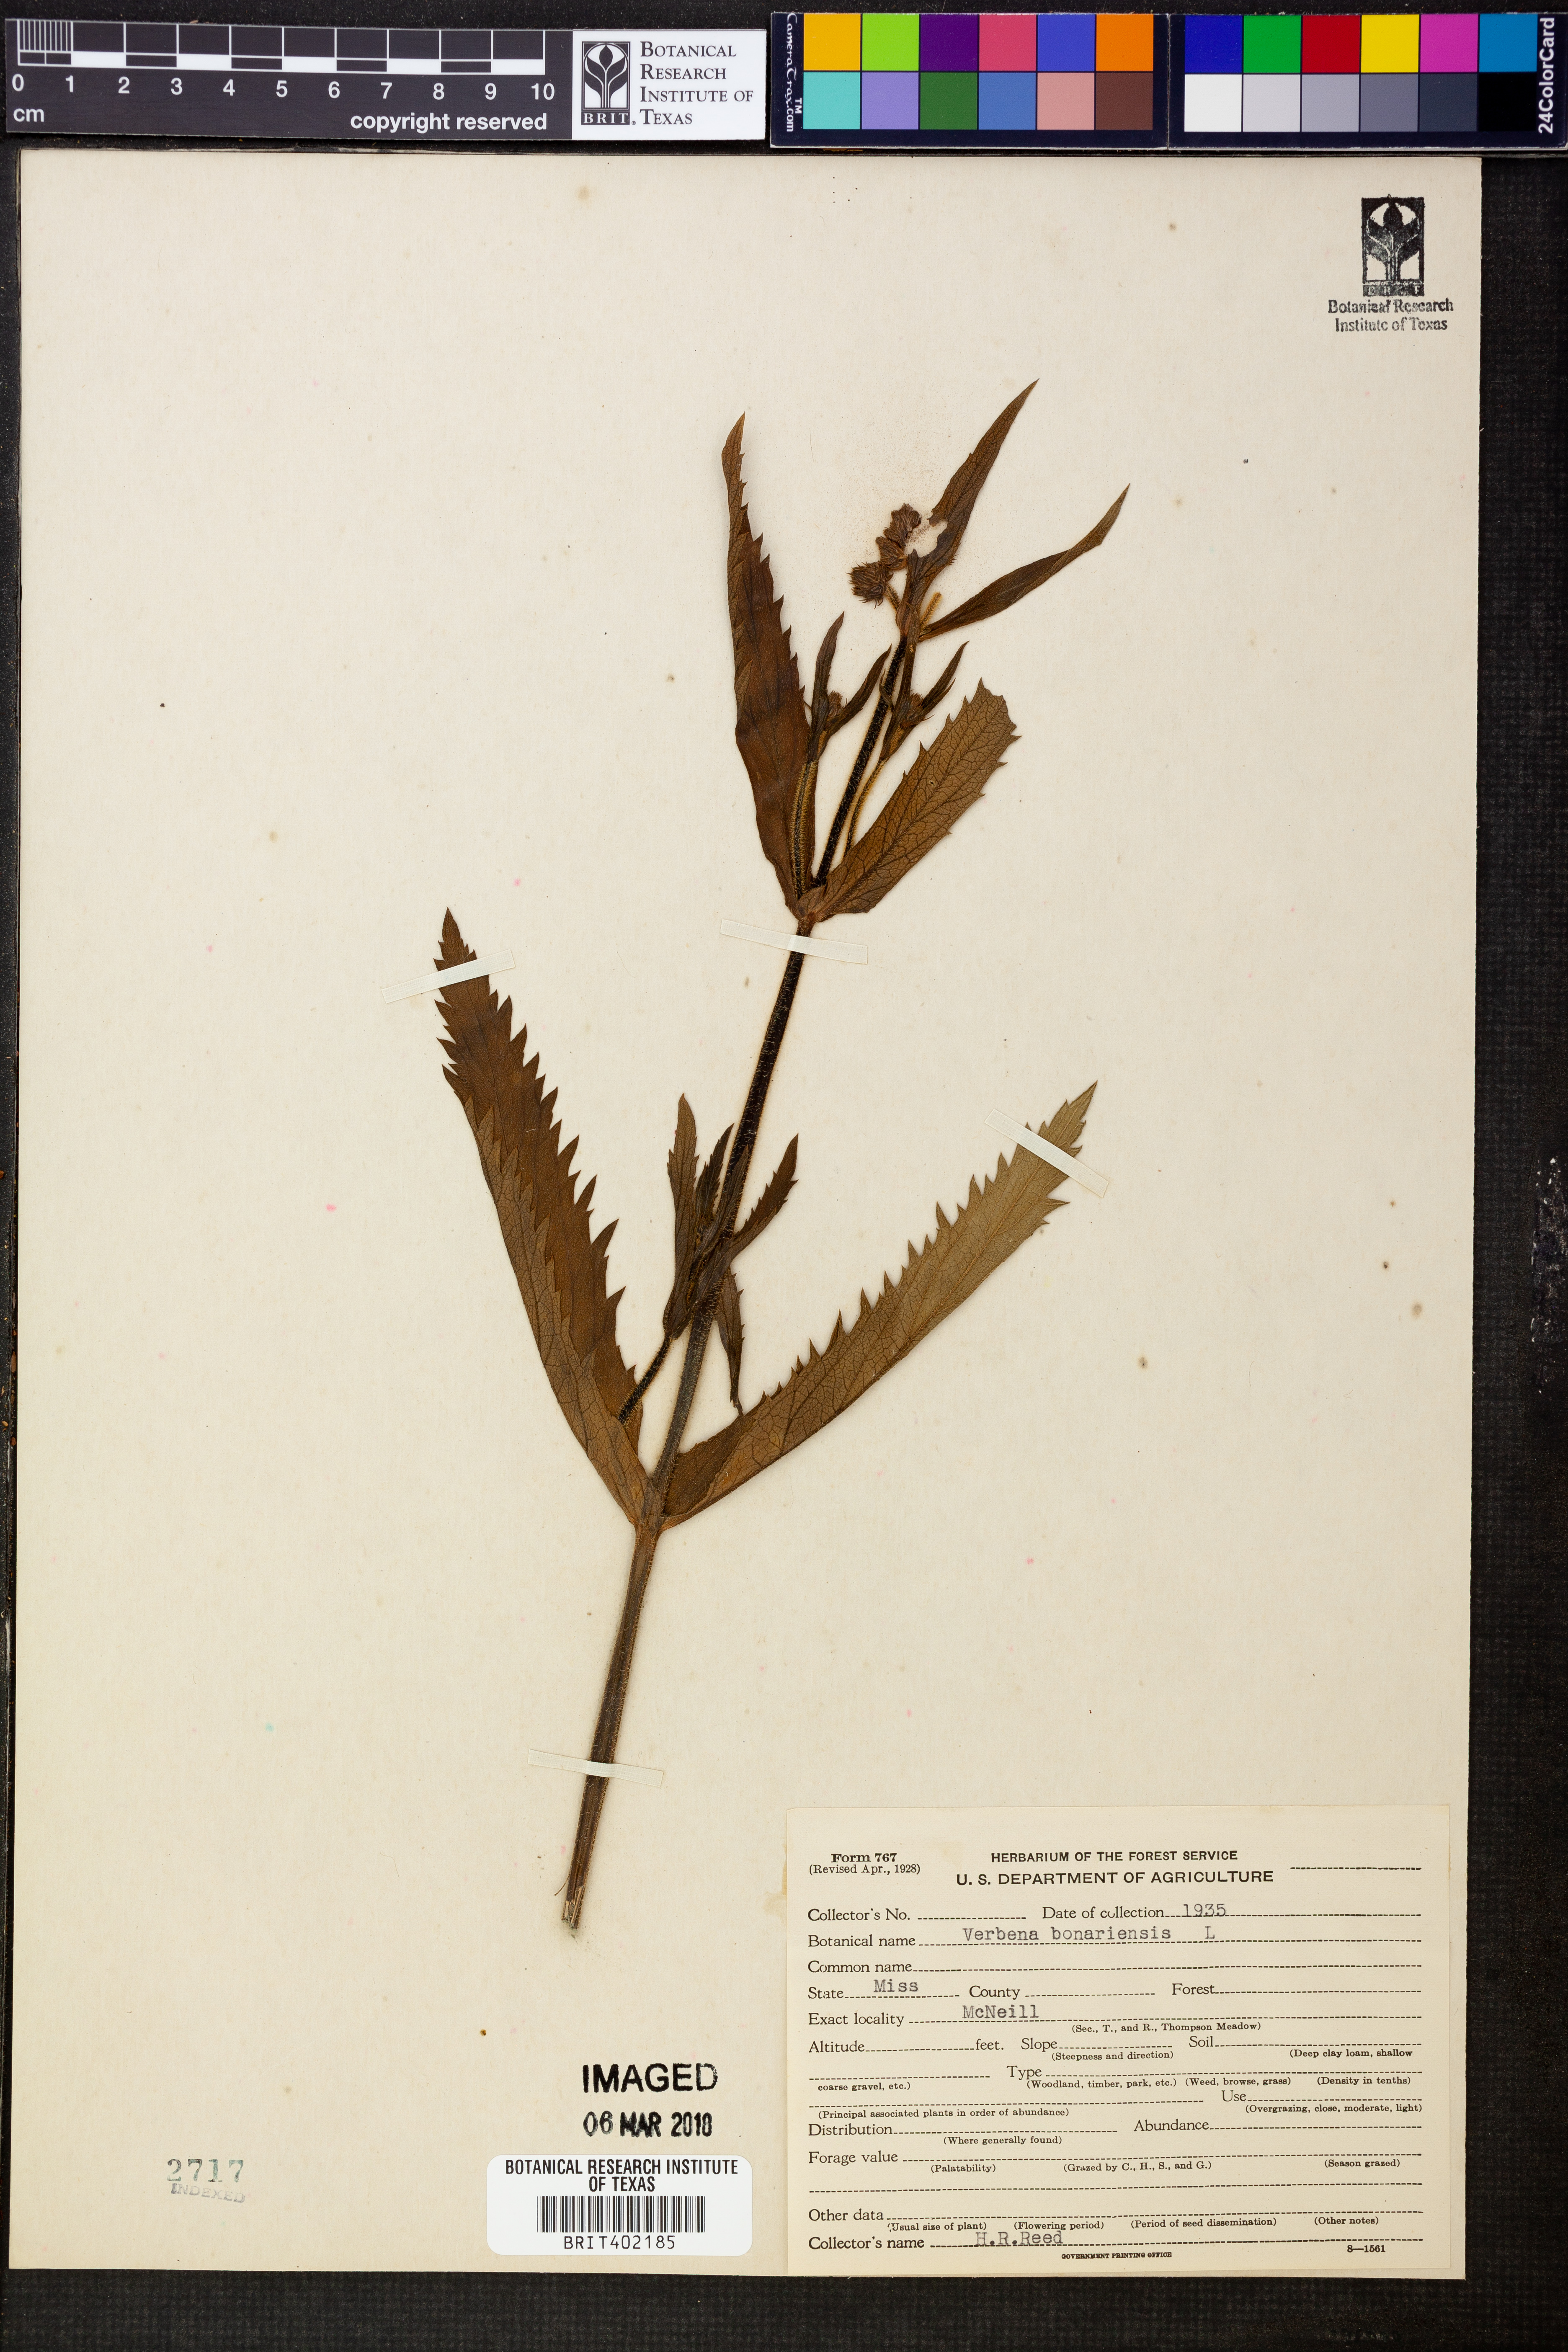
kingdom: Plantae
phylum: Tracheophyta
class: Magnoliopsida
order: Lamiales
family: Verbenaceae
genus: Verbena
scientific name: Verbena bonariensis
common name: Purpletop vervain
